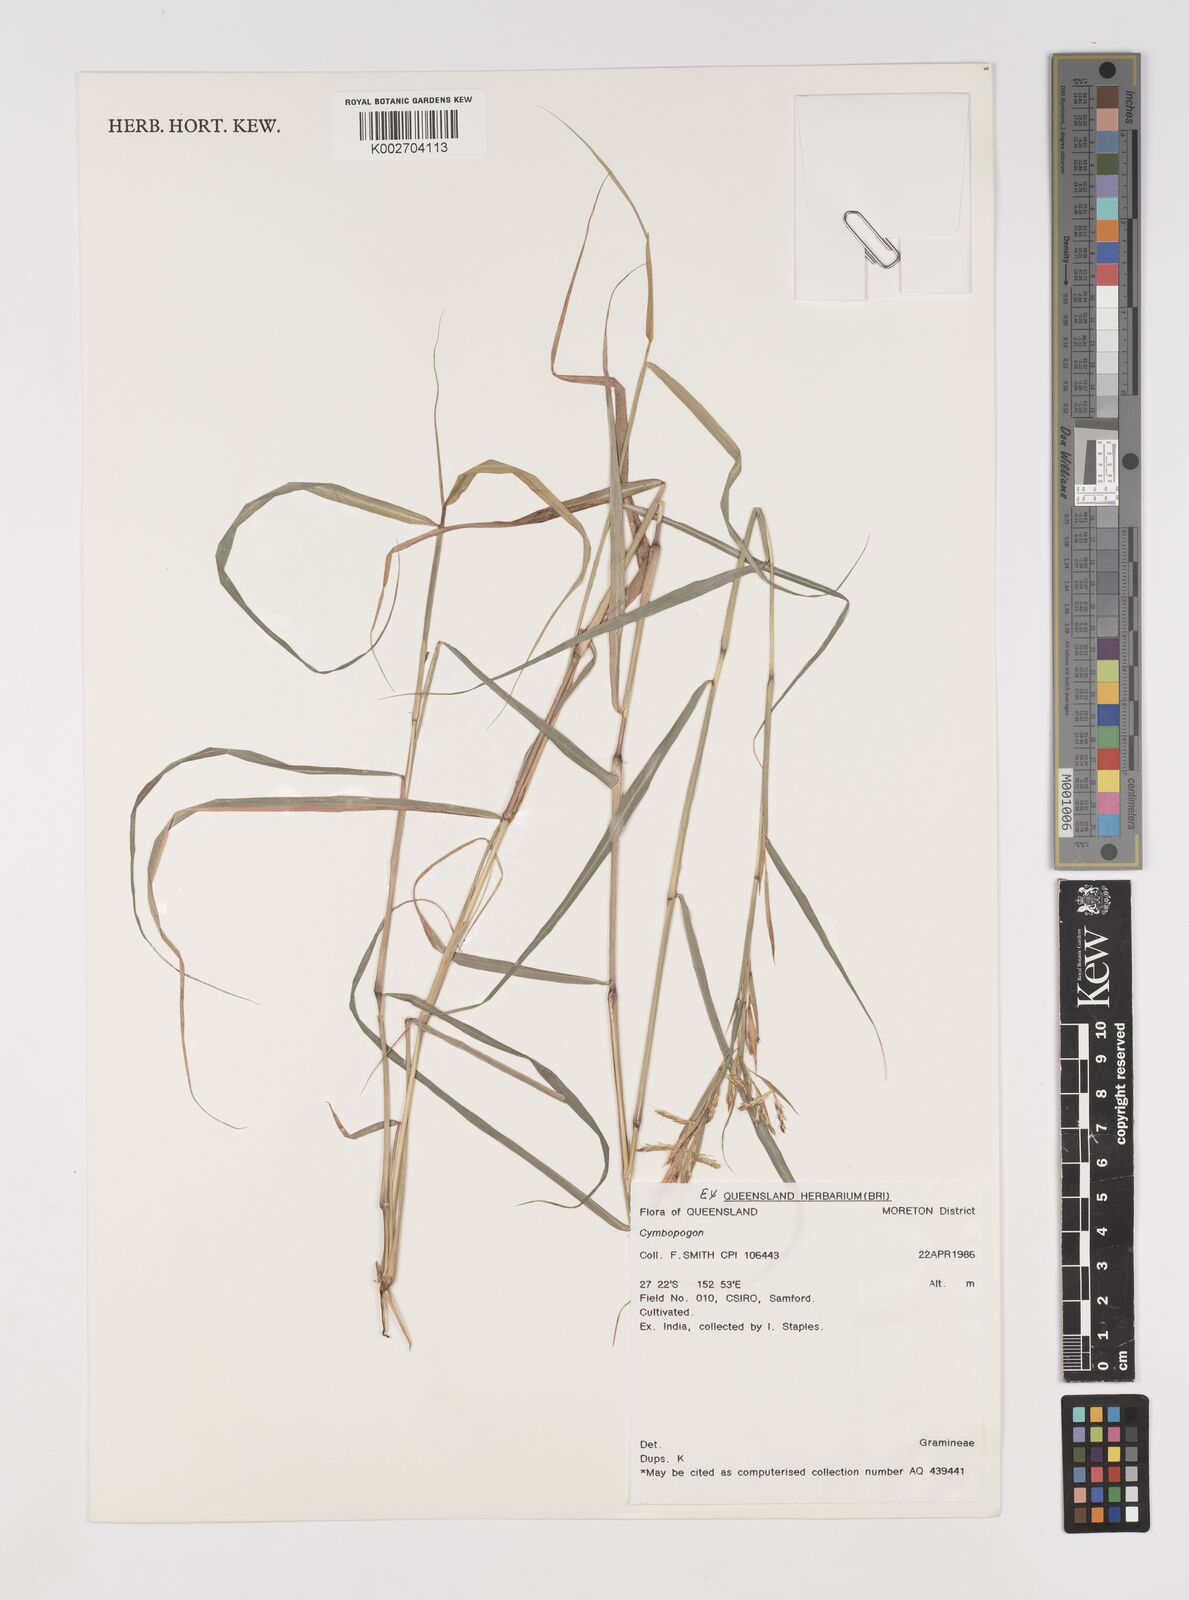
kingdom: Plantae
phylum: Tracheophyta
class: Liliopsida
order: Poales
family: Poaceae
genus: Cymbopogon
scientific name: Cymbopogon
